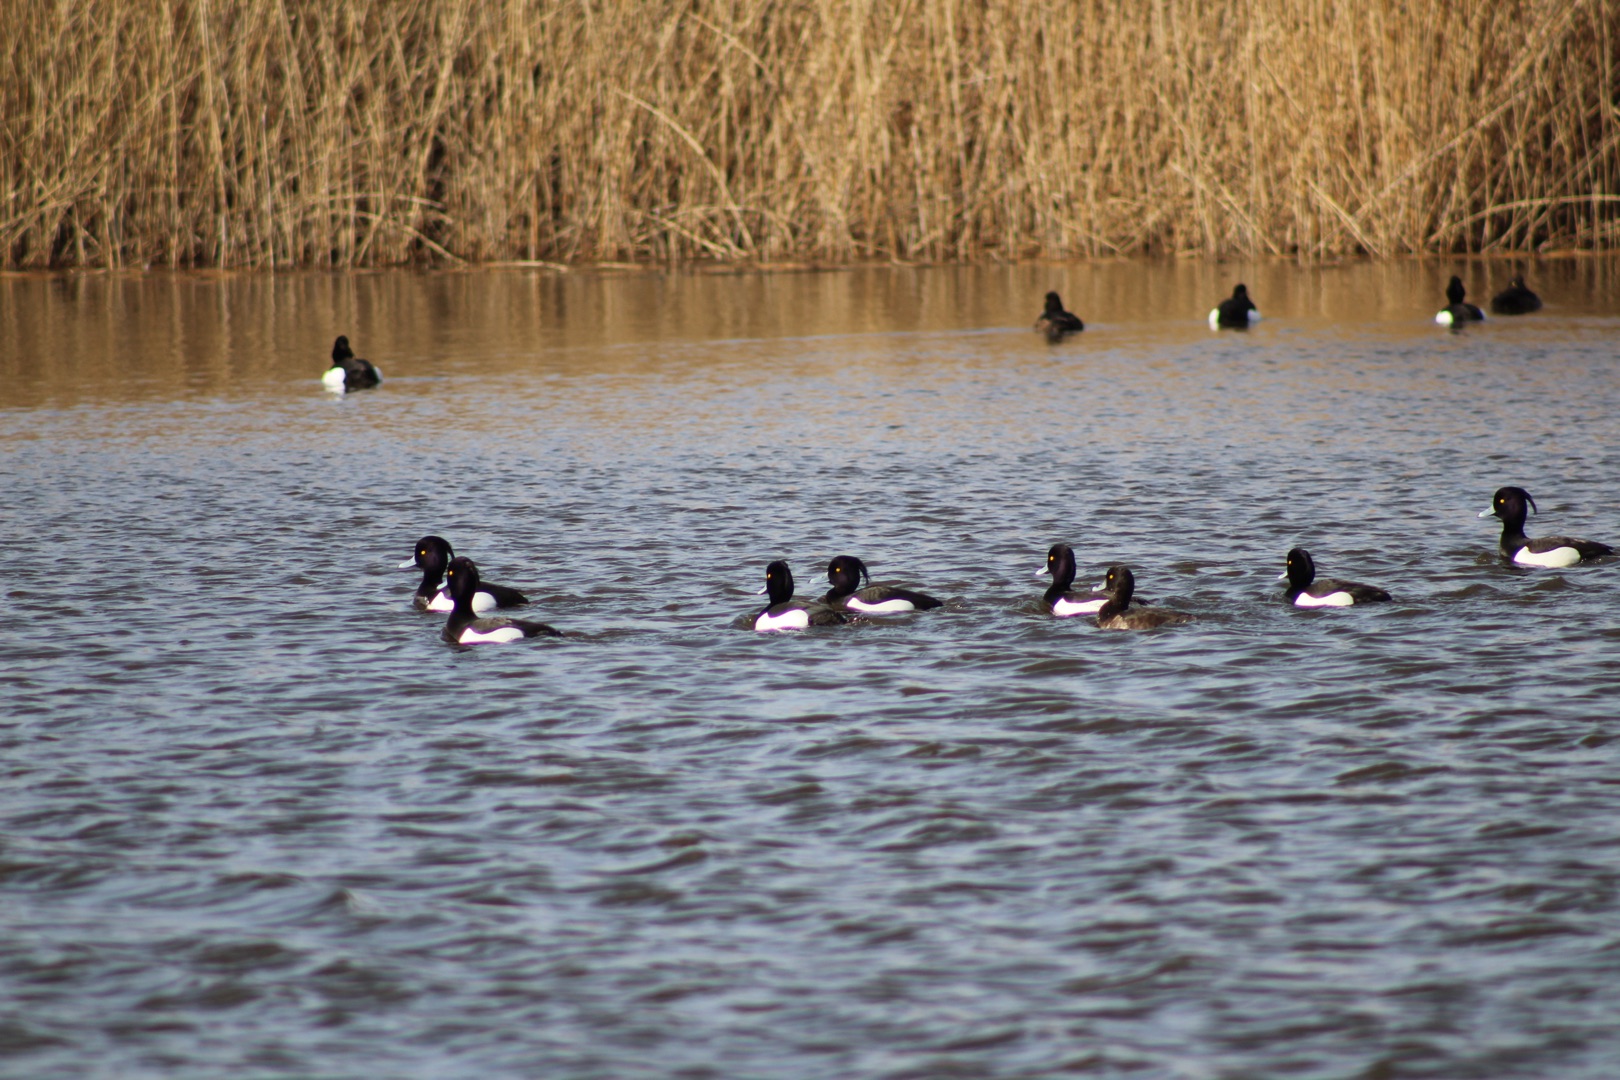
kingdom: Animalia
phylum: Chordata
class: Aves
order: Anseriformes
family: Anatidae
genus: Aythya
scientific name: Aythya fuligula
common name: Troldand
